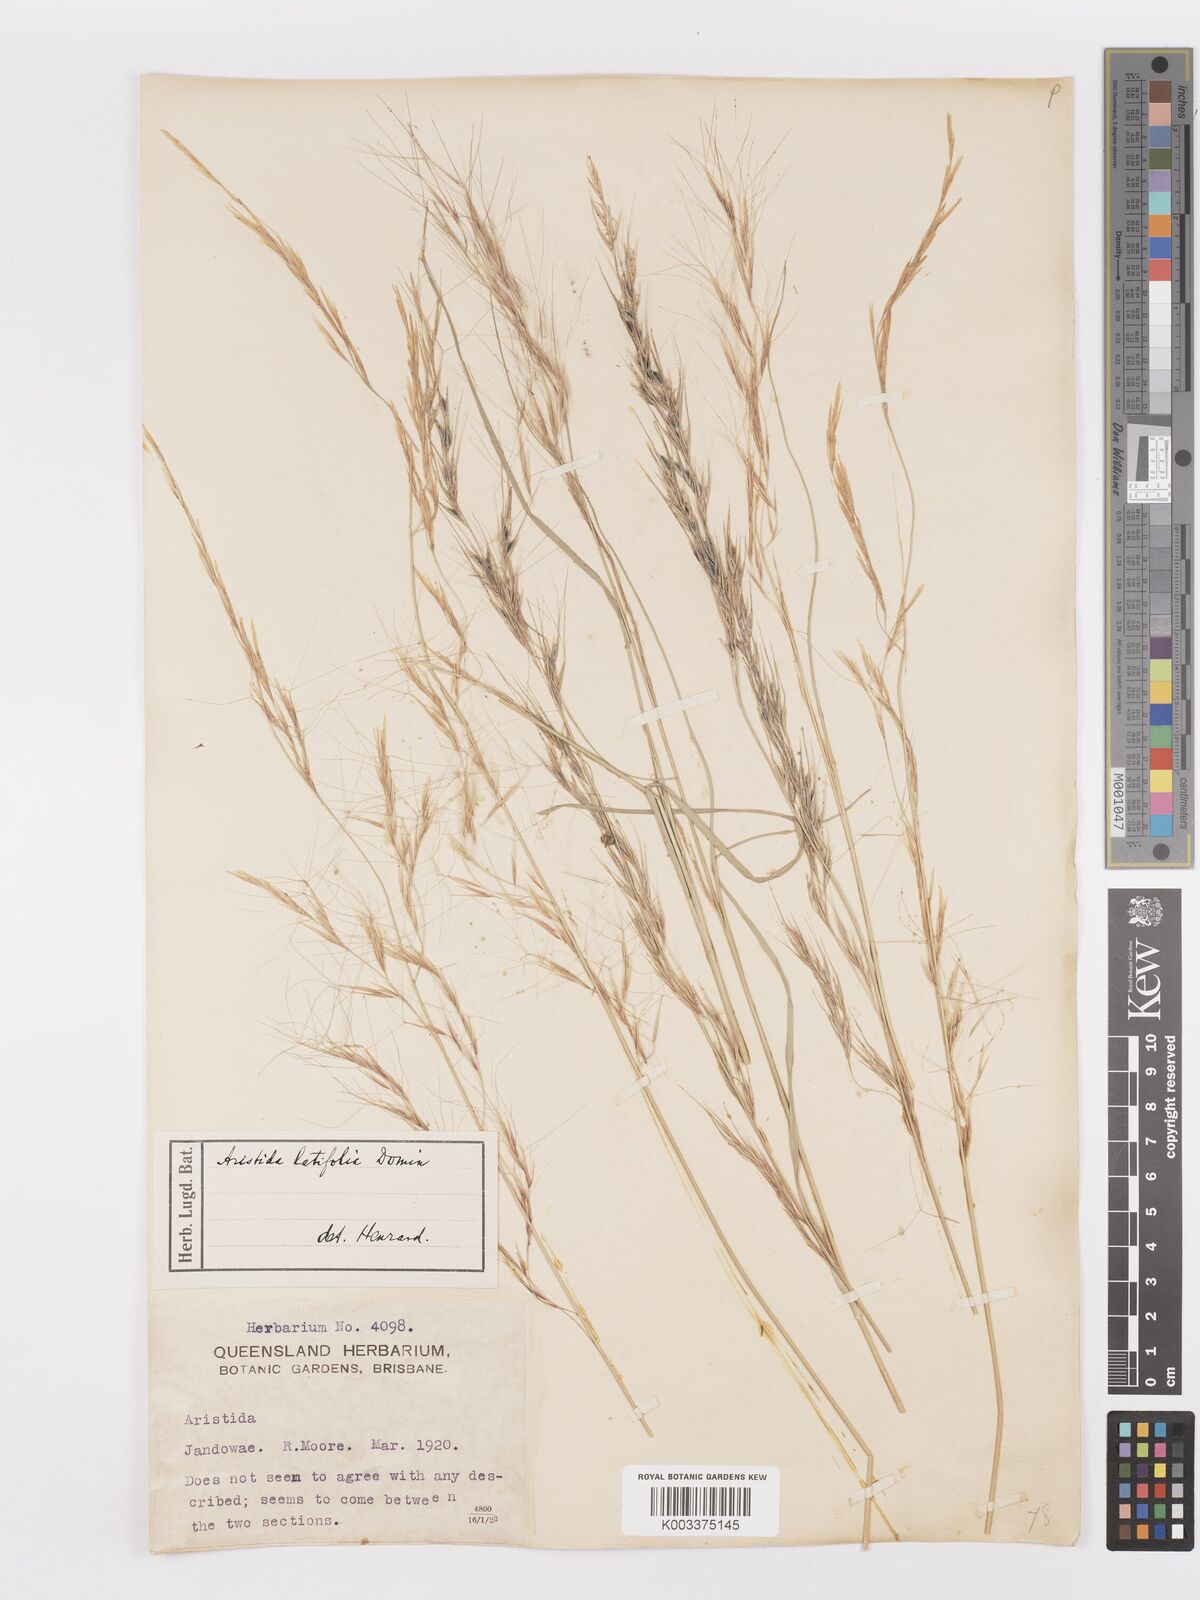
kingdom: Plantae
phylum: Tracheophyta
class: Liliopsida
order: Poales
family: Poaceae
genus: Aristida
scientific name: Aristida latifolia
